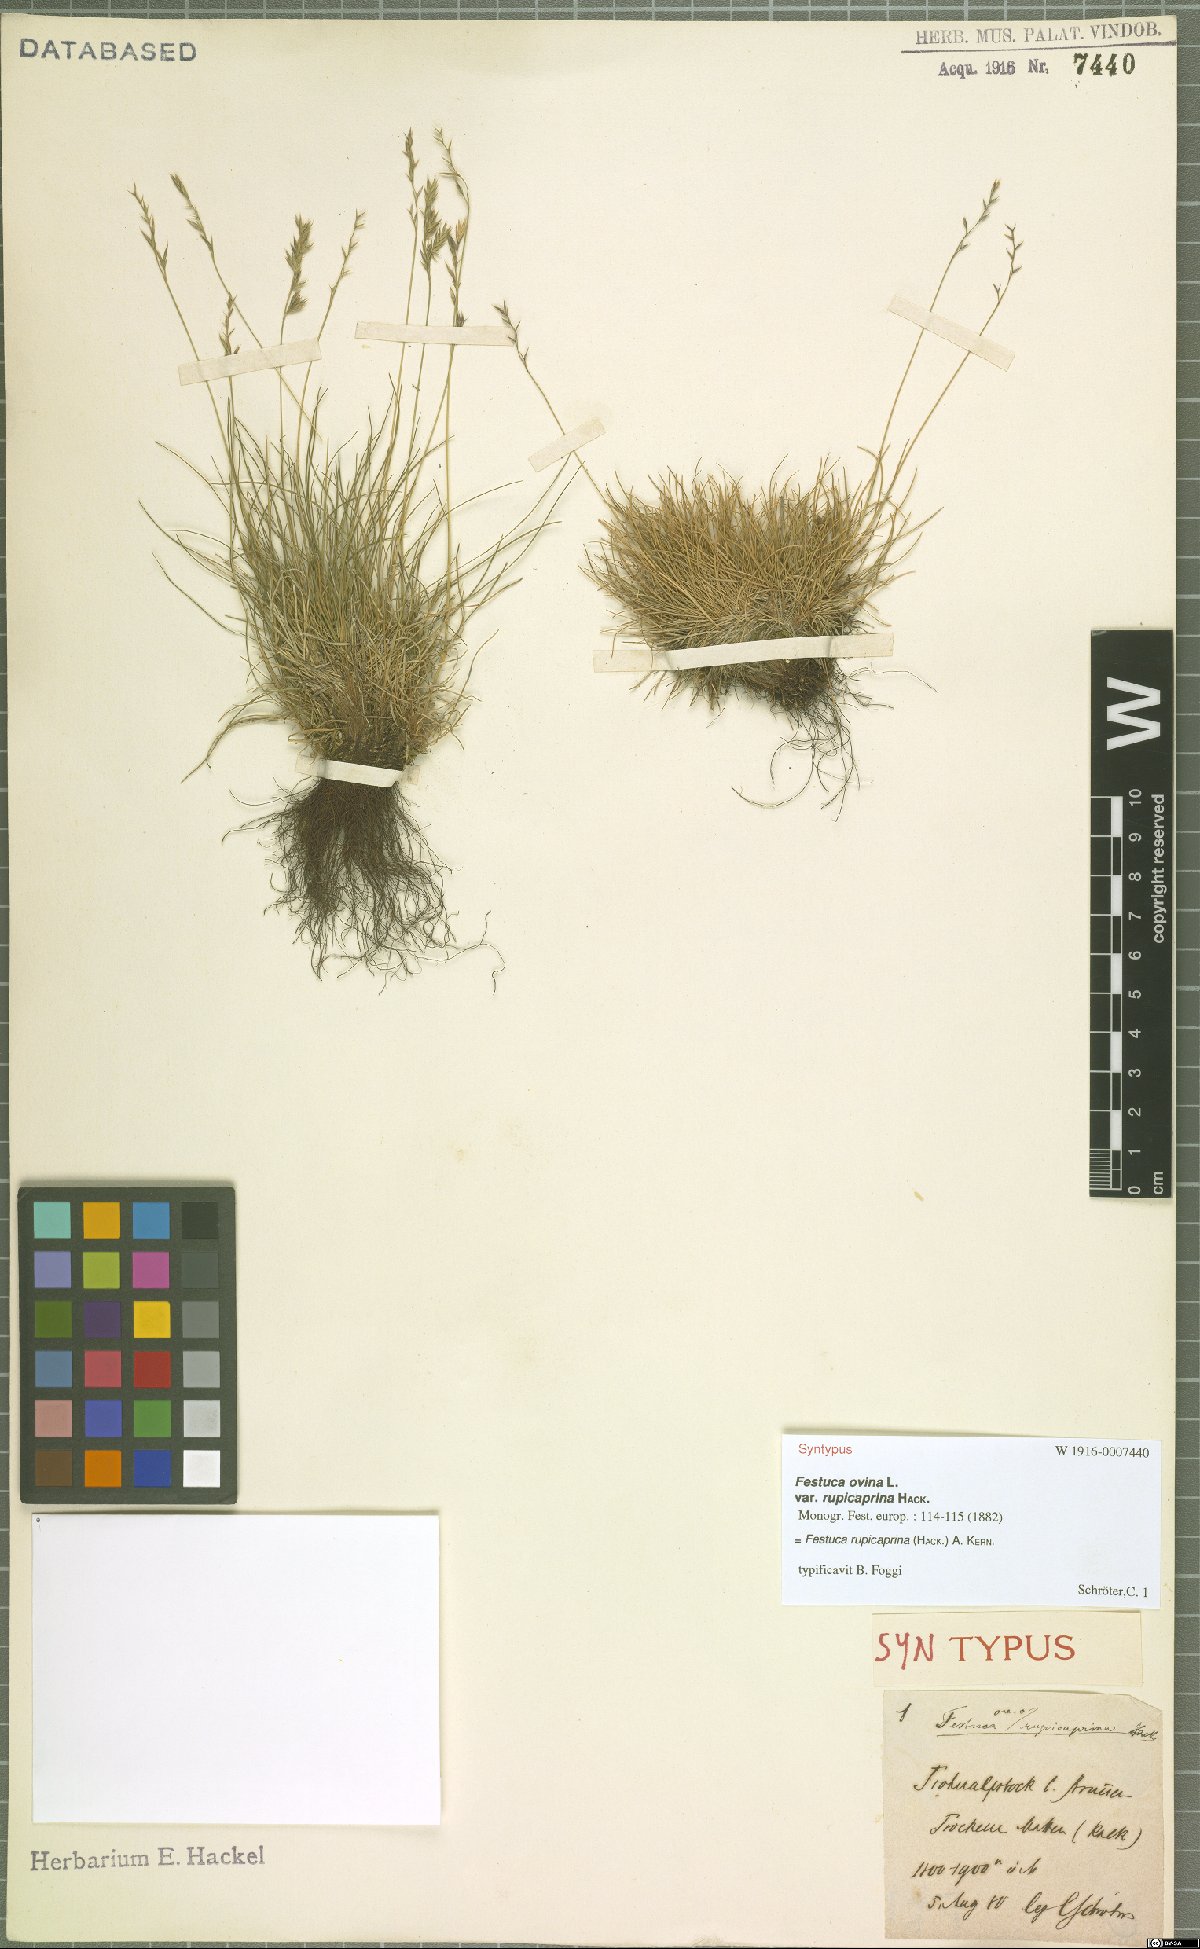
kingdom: Plantae
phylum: Tracheophyta
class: Liliopsida
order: Poales
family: Poaceae
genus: Festuca
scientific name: Festuca rupicaprina
